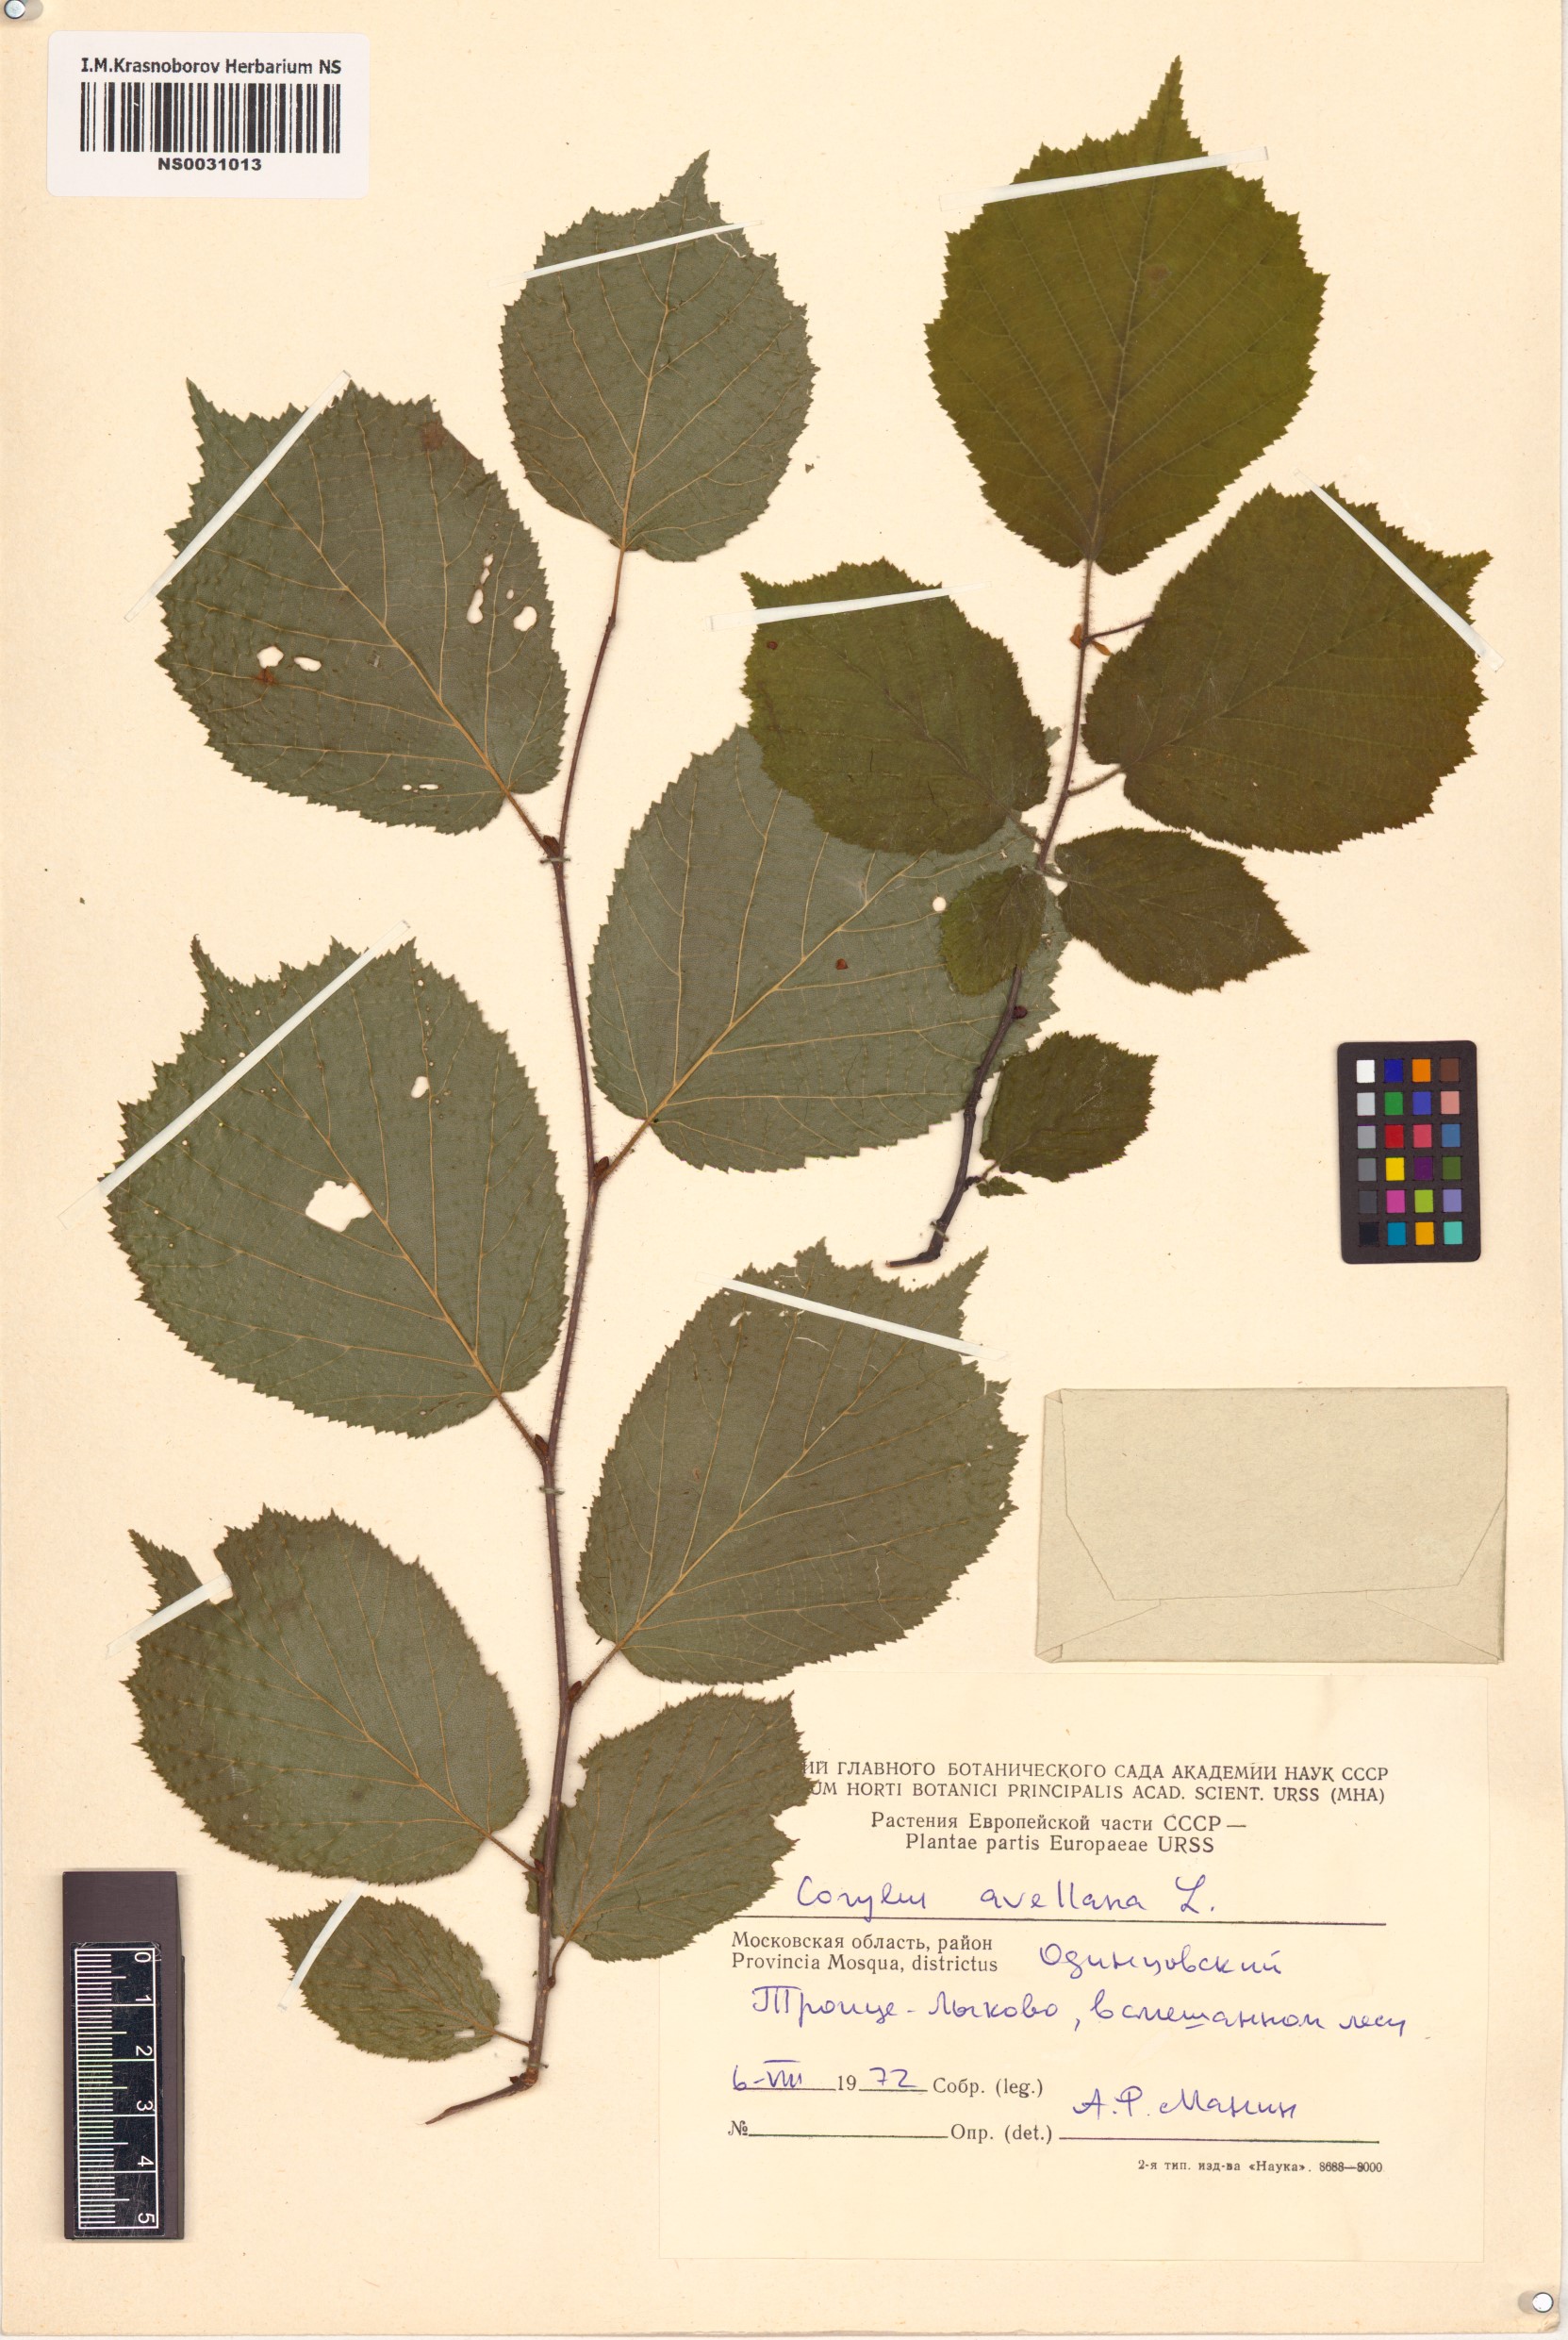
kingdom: Plantae
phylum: Tracheophyta
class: Magnoliopsida
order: Fagales
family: Betulaceae
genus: Corylus
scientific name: Corylus avellana
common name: European hazel
